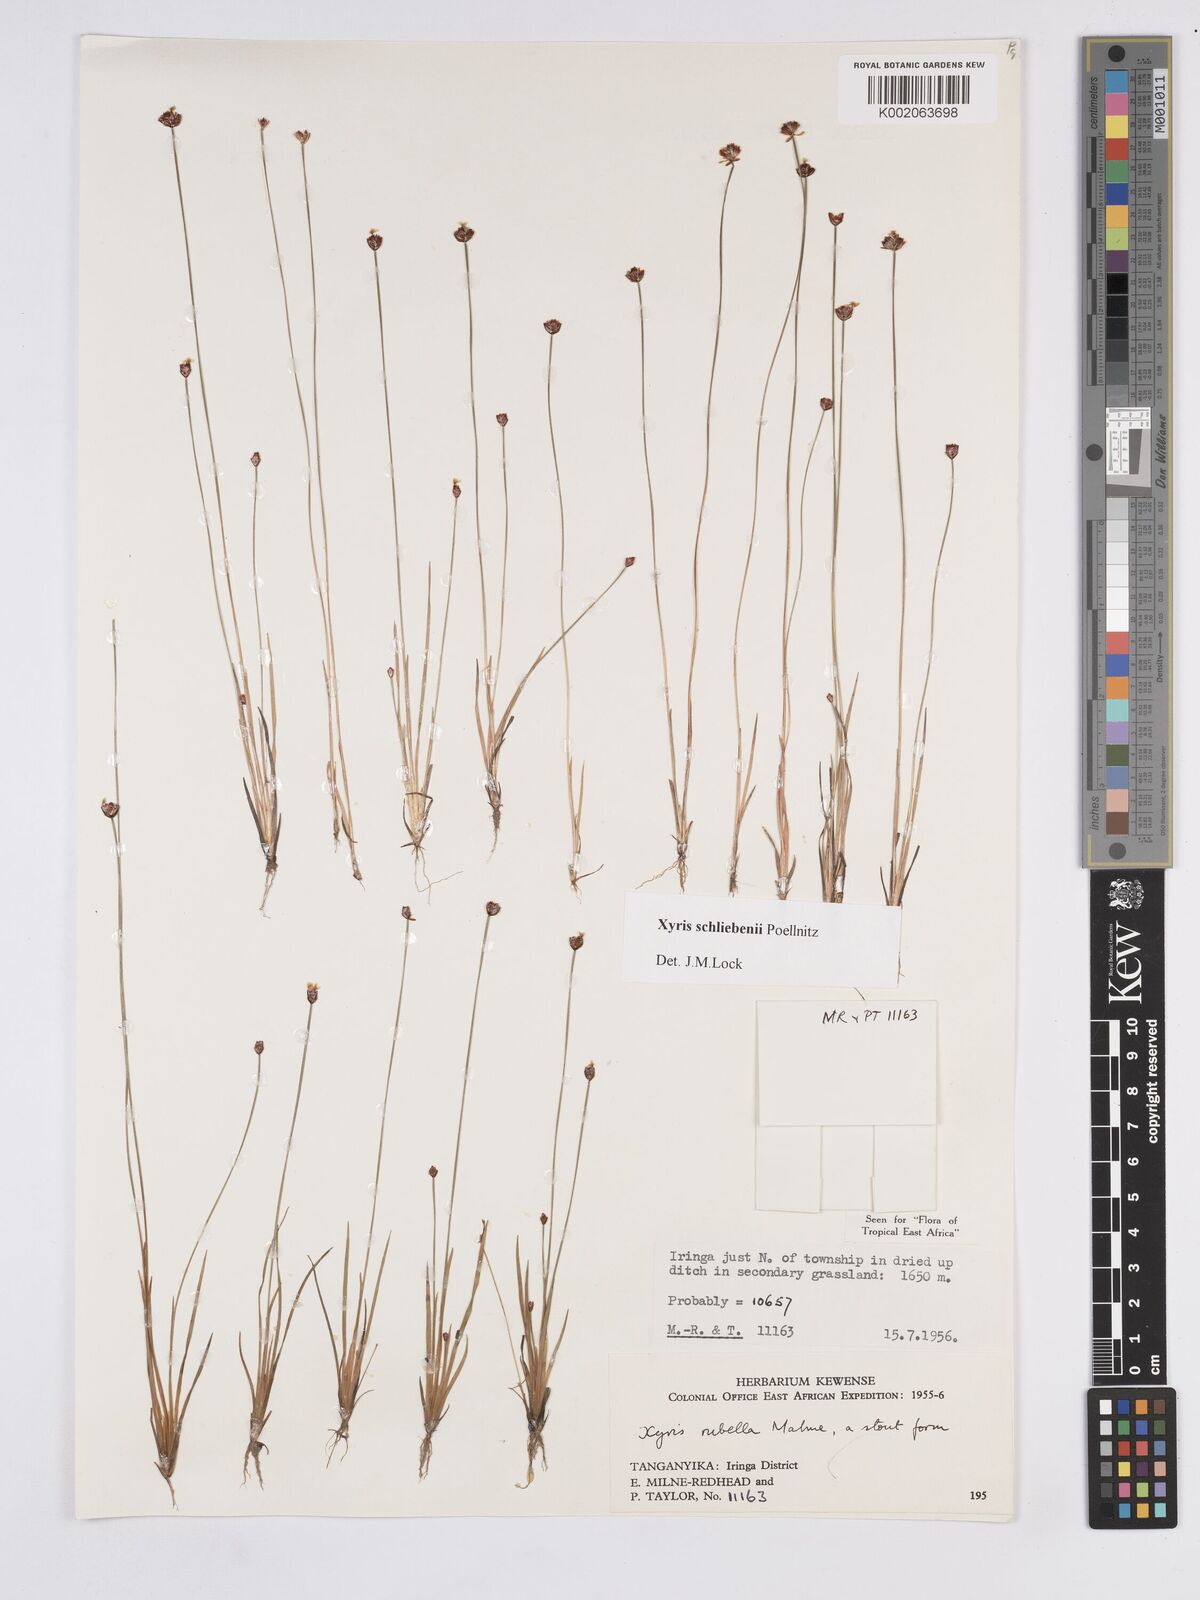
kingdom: Plantae
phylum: Tracheophyta
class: Liliopsida
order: Poales
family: Xyridaceae
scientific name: Xyridaceae
